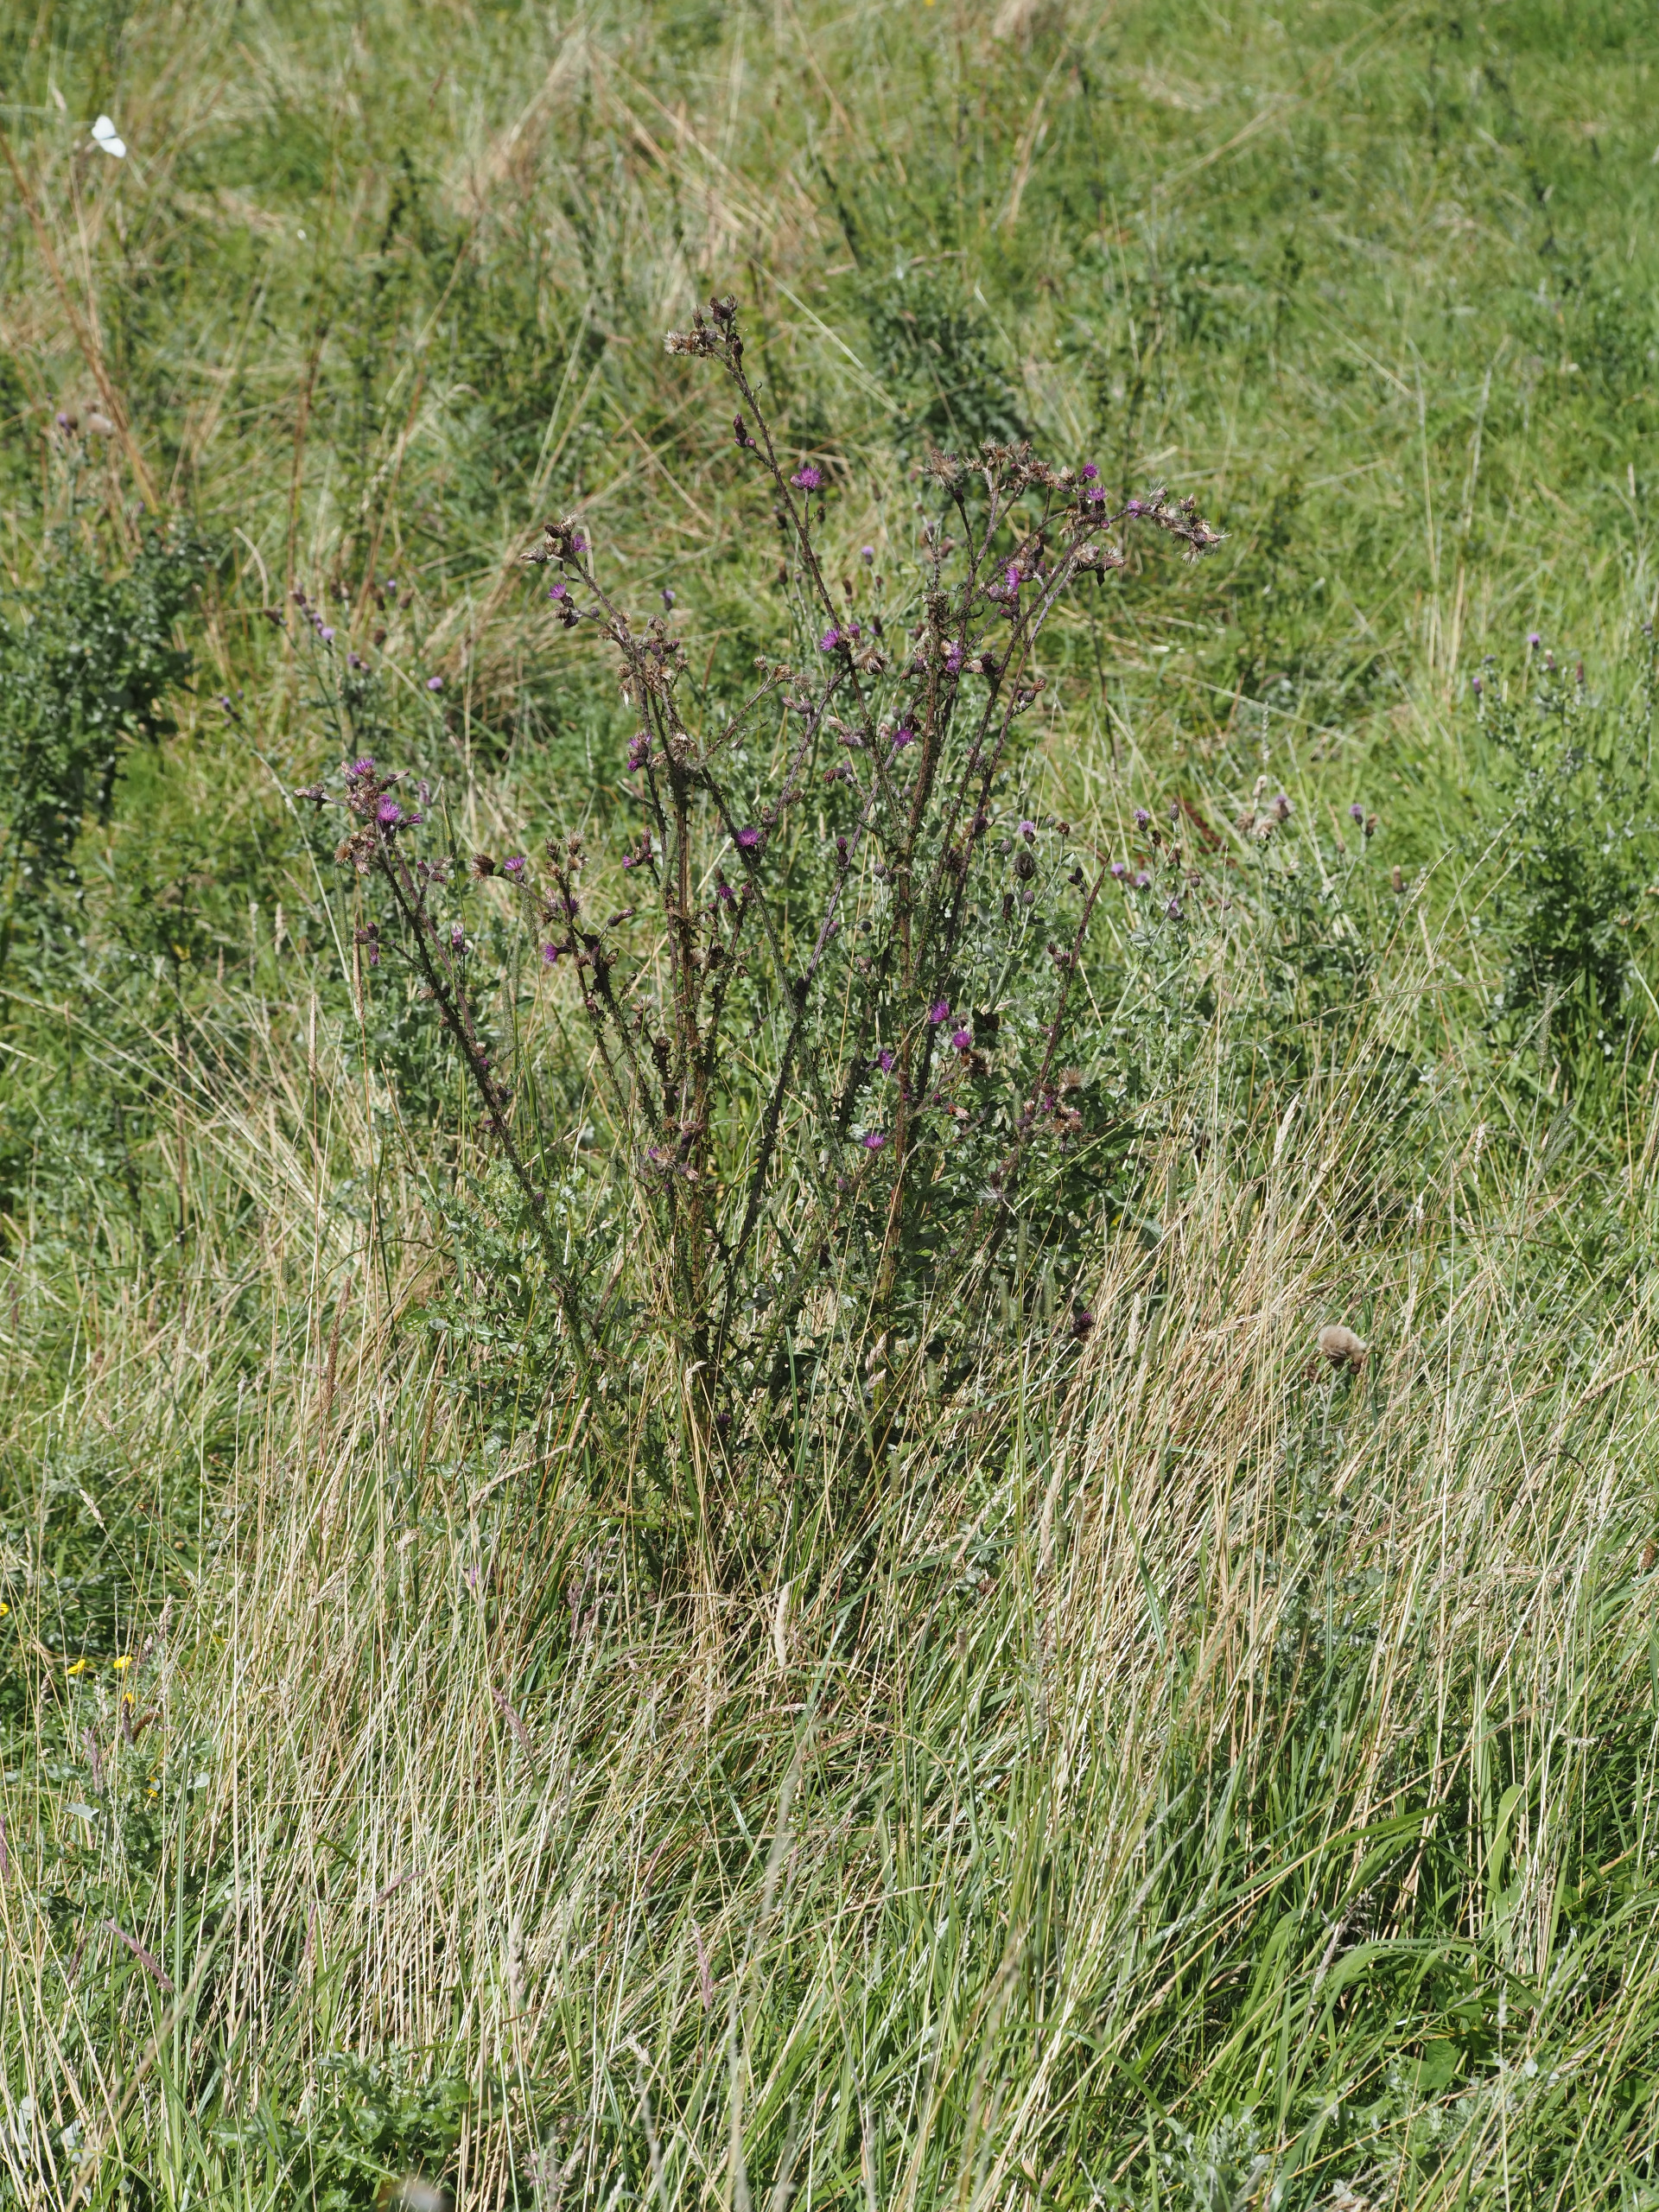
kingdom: Plantae
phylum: Tracheophyta
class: Magnoliopsida
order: Asterales
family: Asteraceae
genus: Cirsium
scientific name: Cirsium palustre
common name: Kær-tidsel
